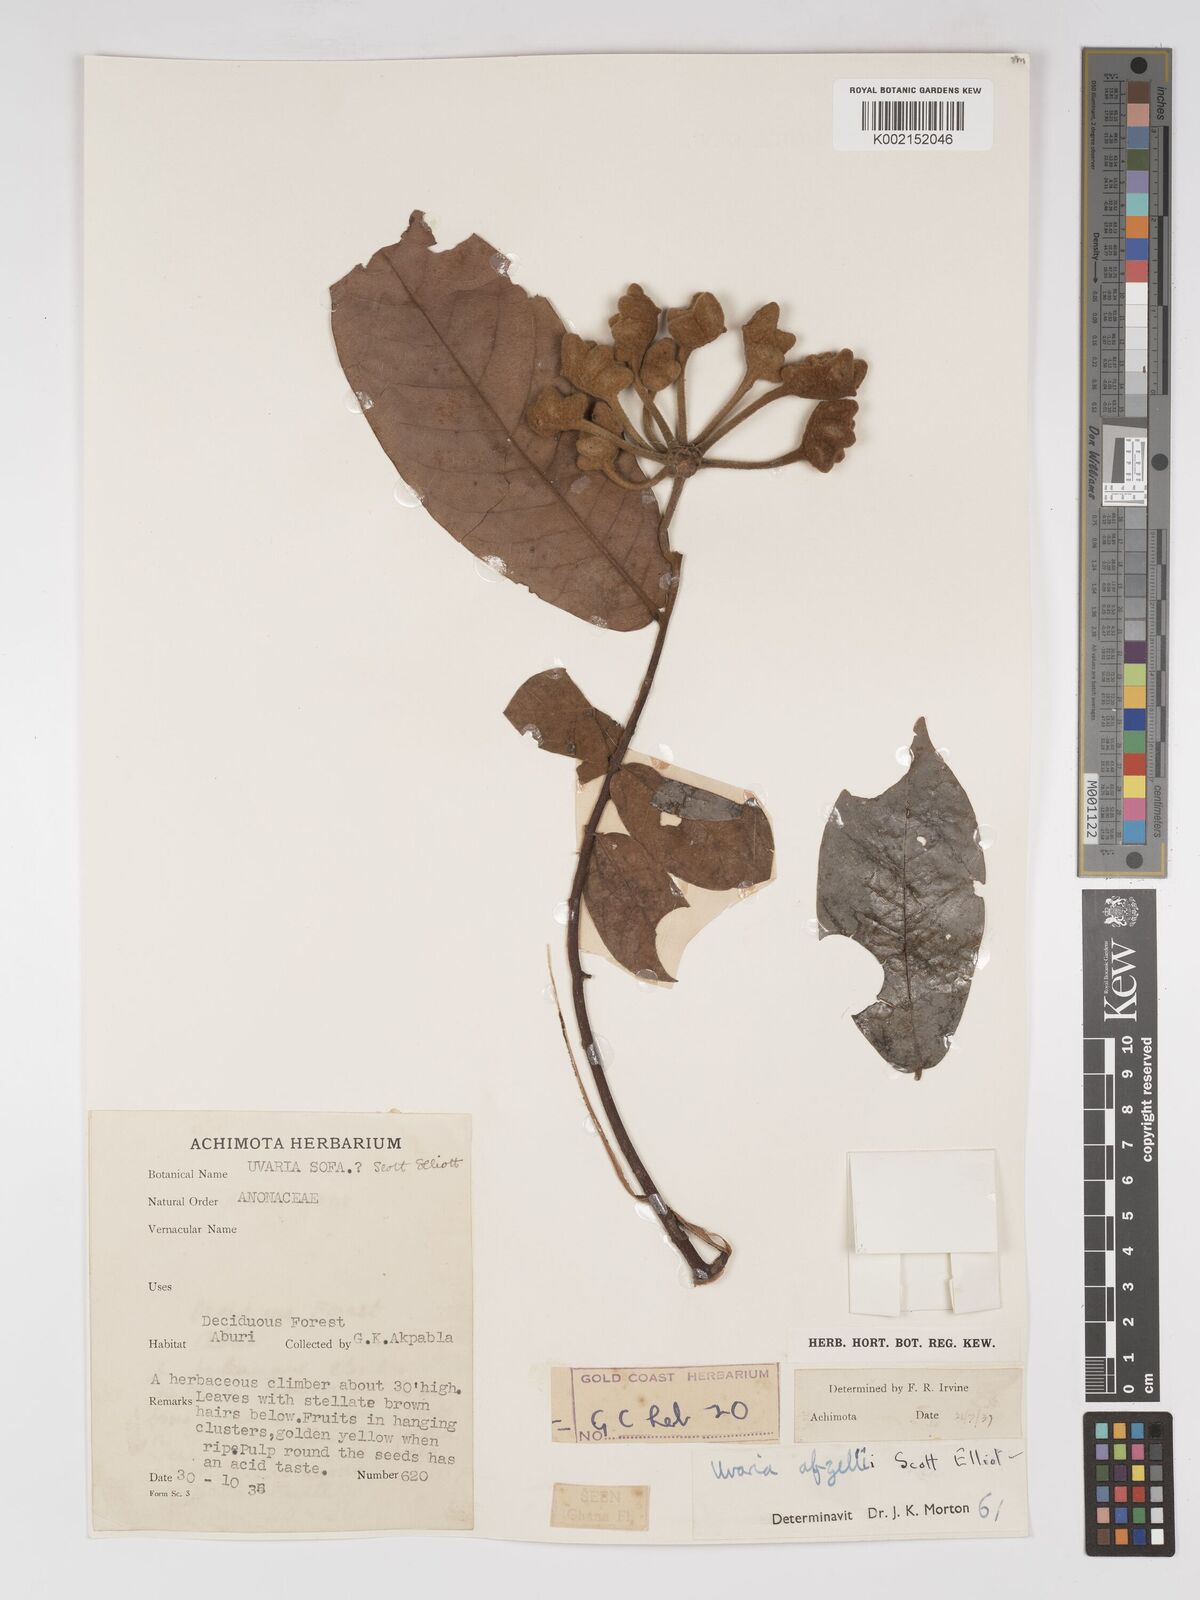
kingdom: Plantae
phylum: Tracheophyta
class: Magnoliopsida
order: Magnoliales
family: Annonaceae
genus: Uvaria
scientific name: Uvaria afzelii
